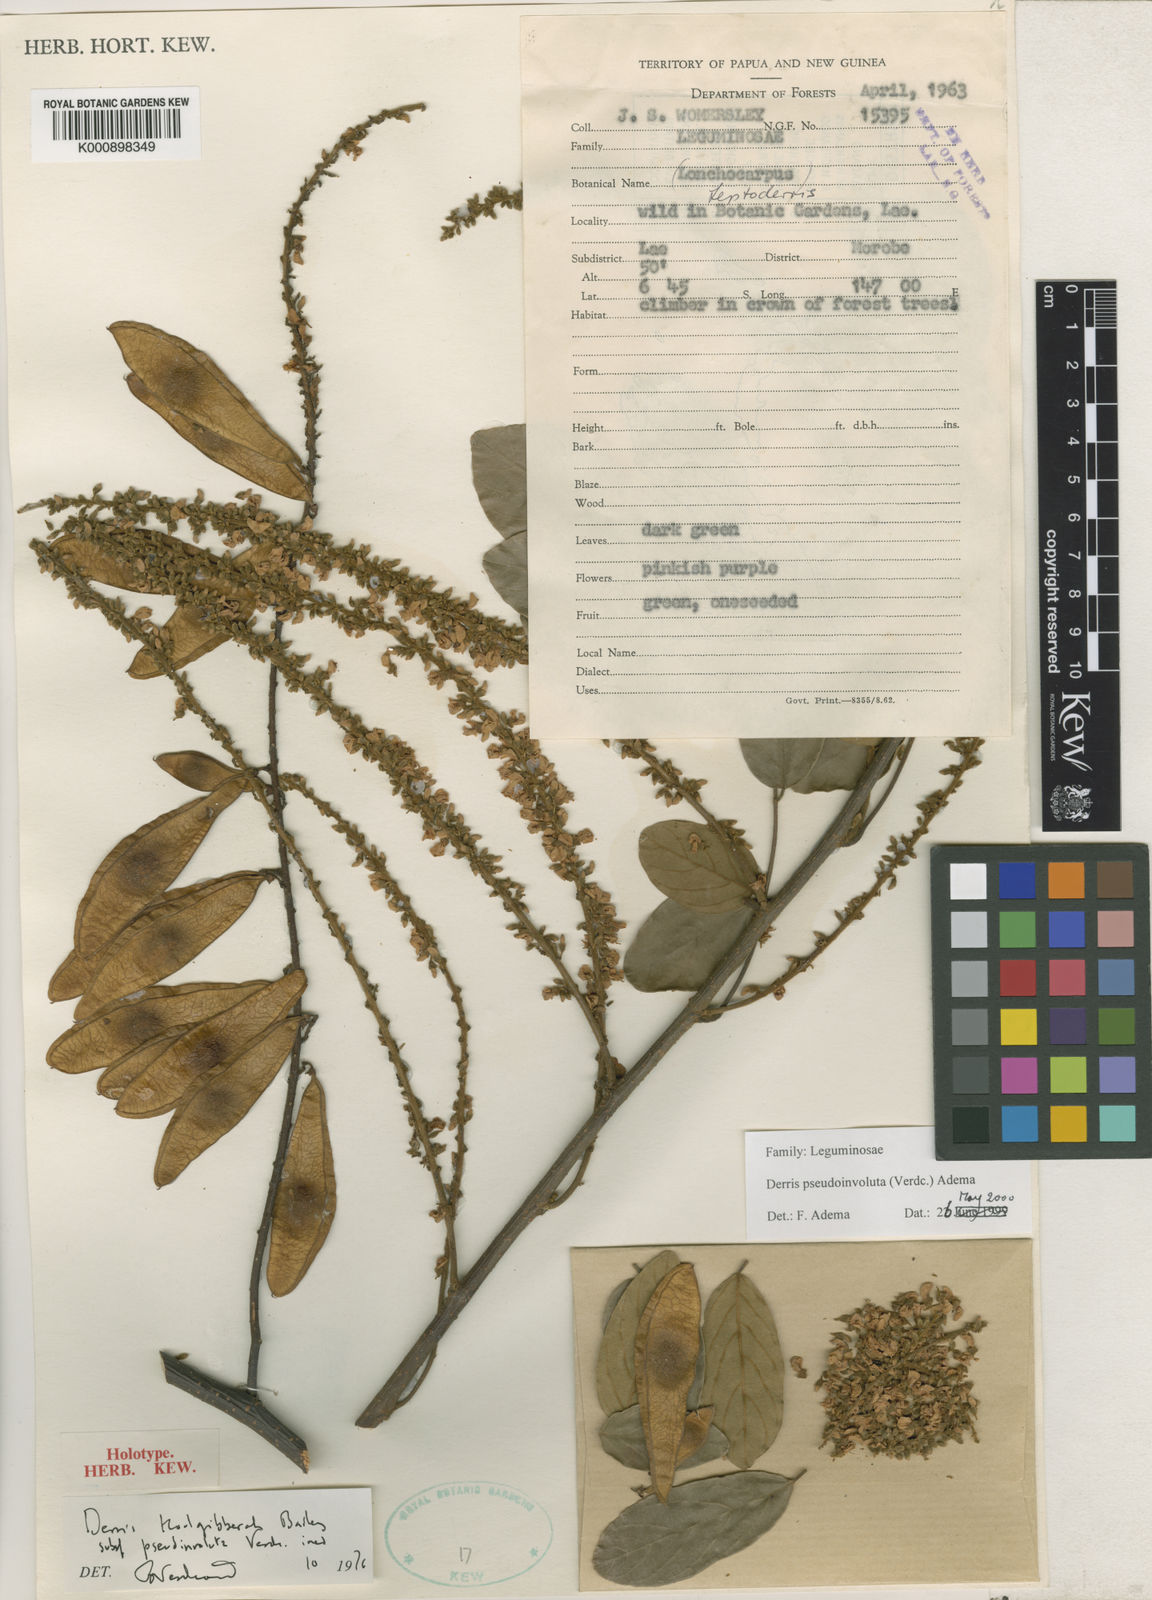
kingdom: Plantae
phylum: Tracheophyta
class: Magnoliopsida
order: Fabales
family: Fabaceae
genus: Brachypterum
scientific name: Brachypterum pseudinvolutum
